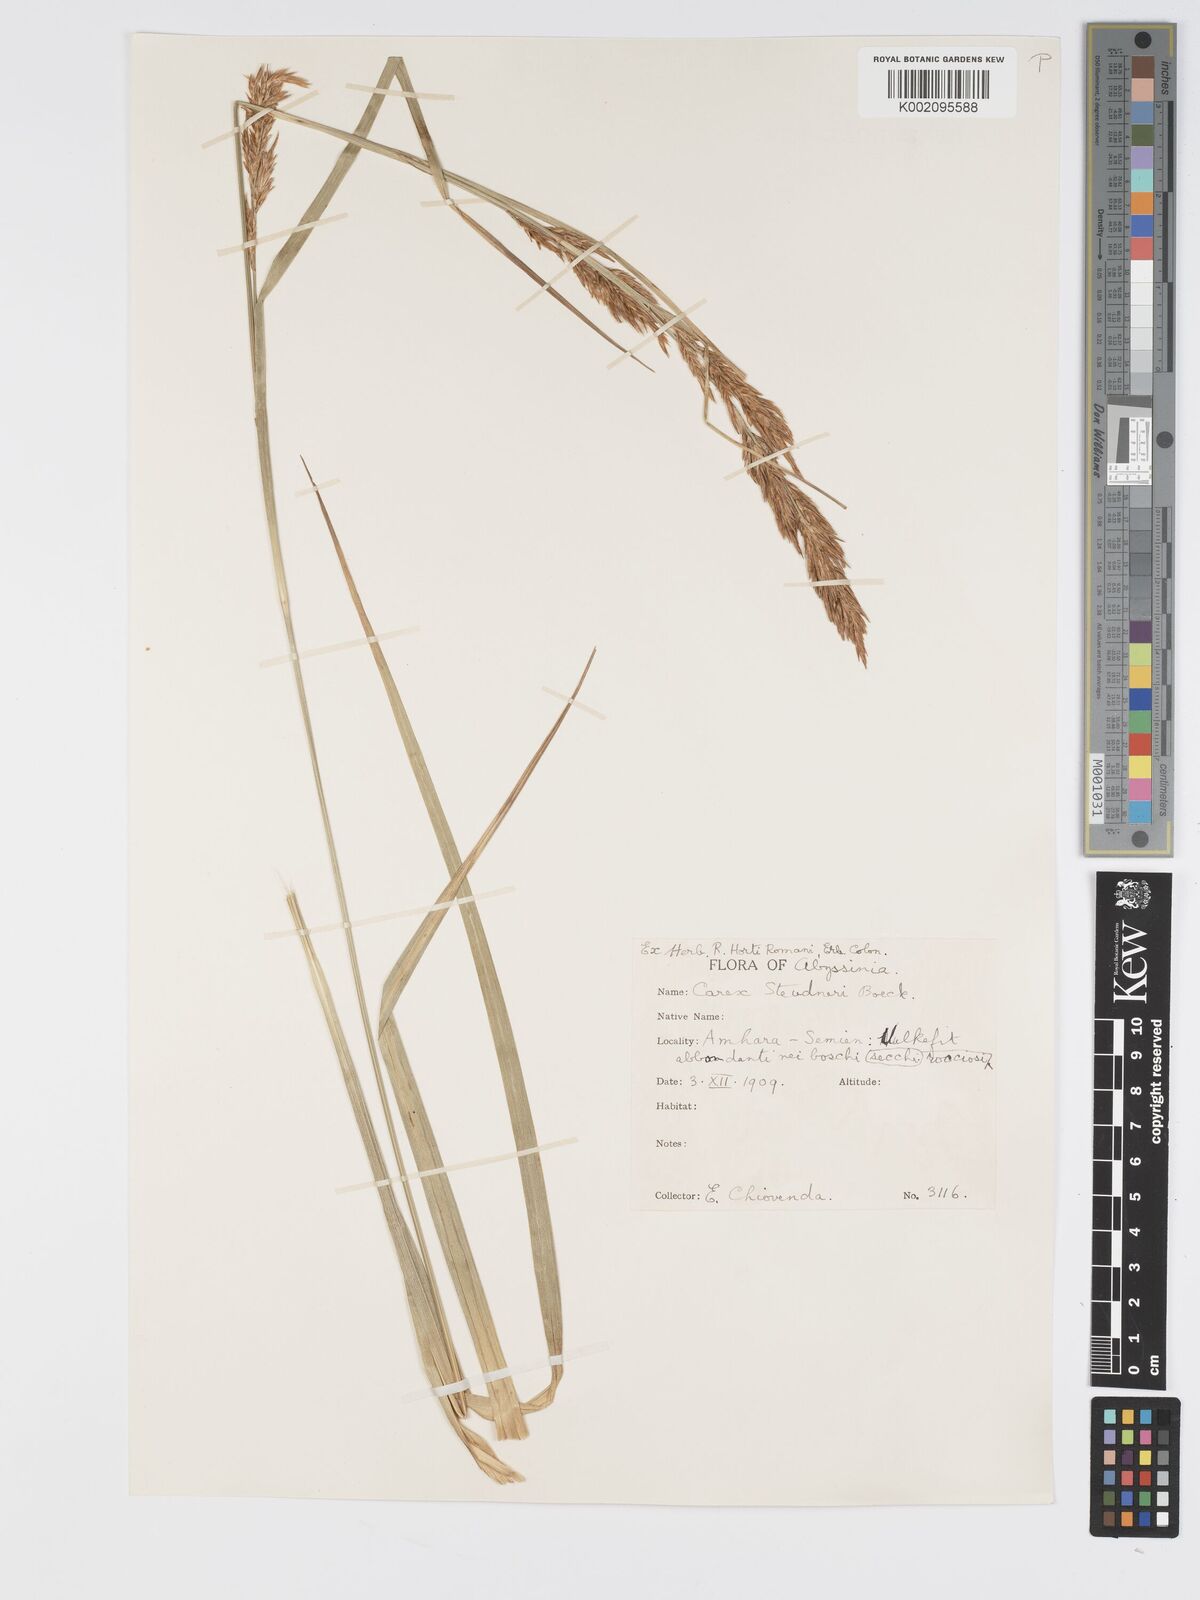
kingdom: Plantae
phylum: Tracheophyta
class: Liliopsida
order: Poales
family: Cyperaceae
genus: Carex
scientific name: Carex steudneri
